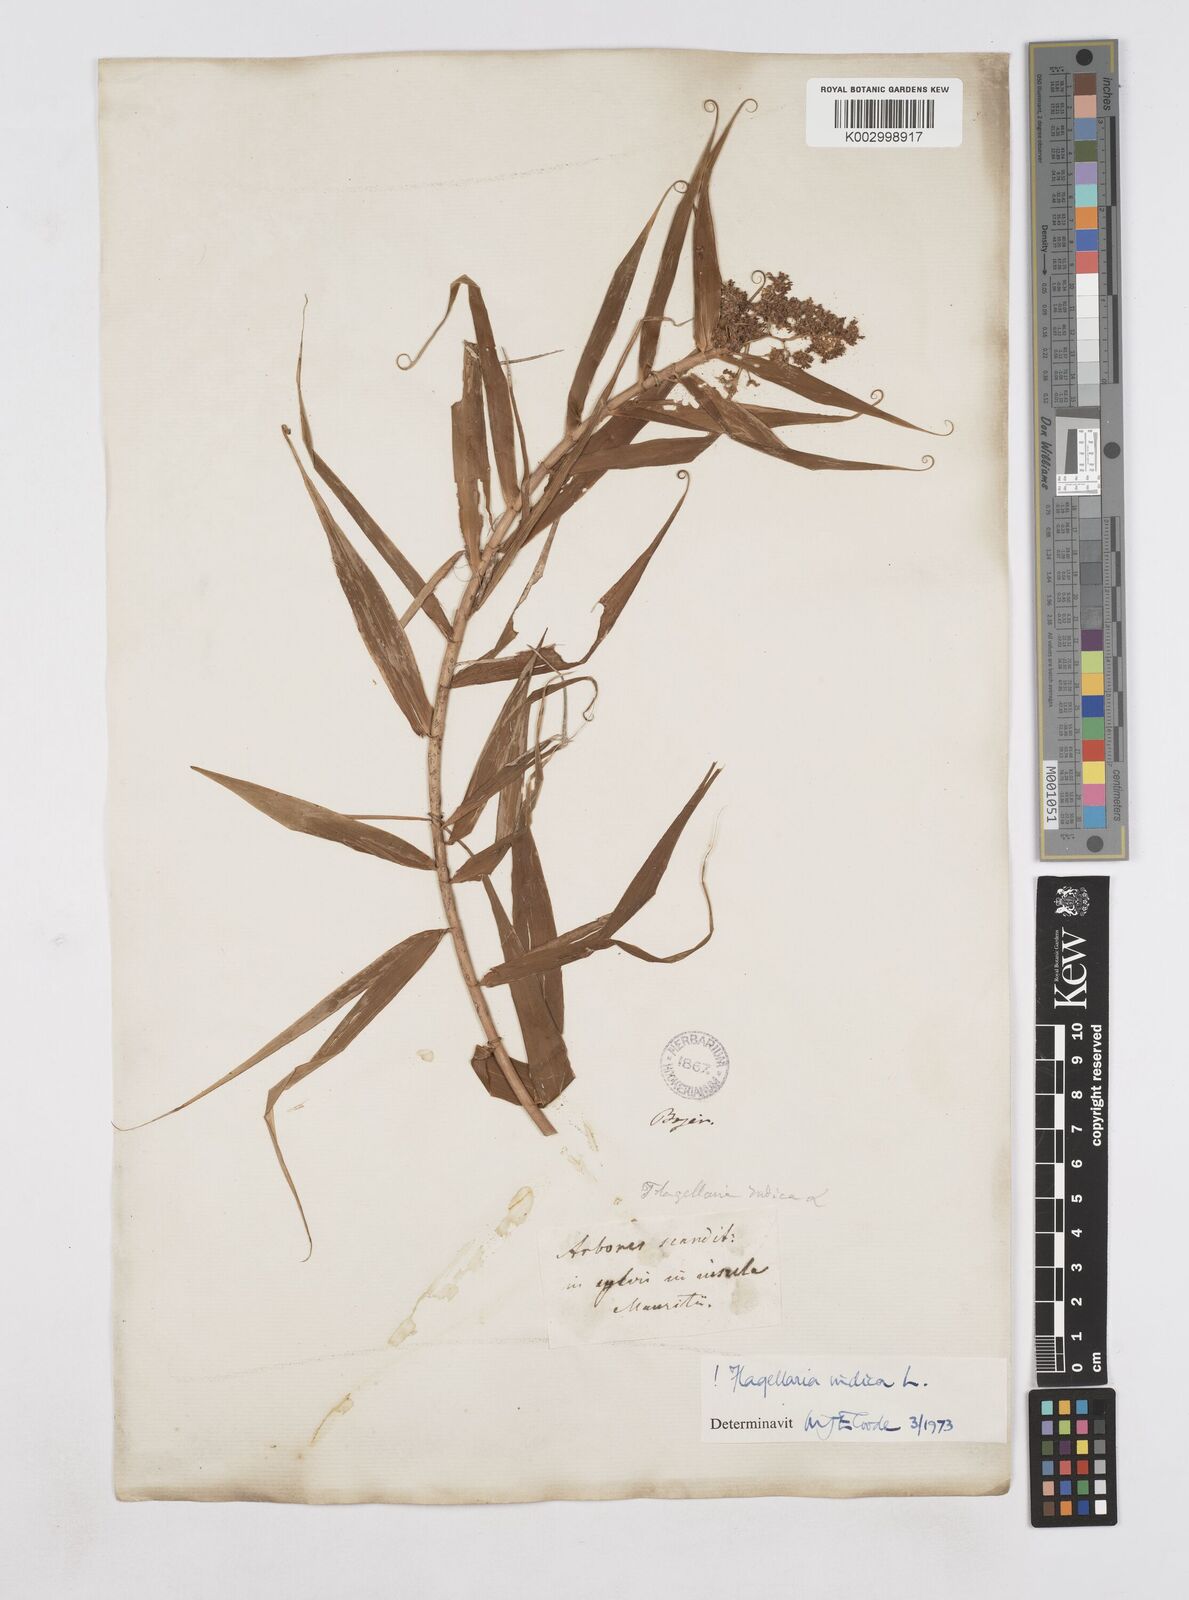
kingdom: Plantae
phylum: Tracheophyta
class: Liliopsida
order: Poales
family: Flagellariaceae
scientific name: Flagellariaceae
